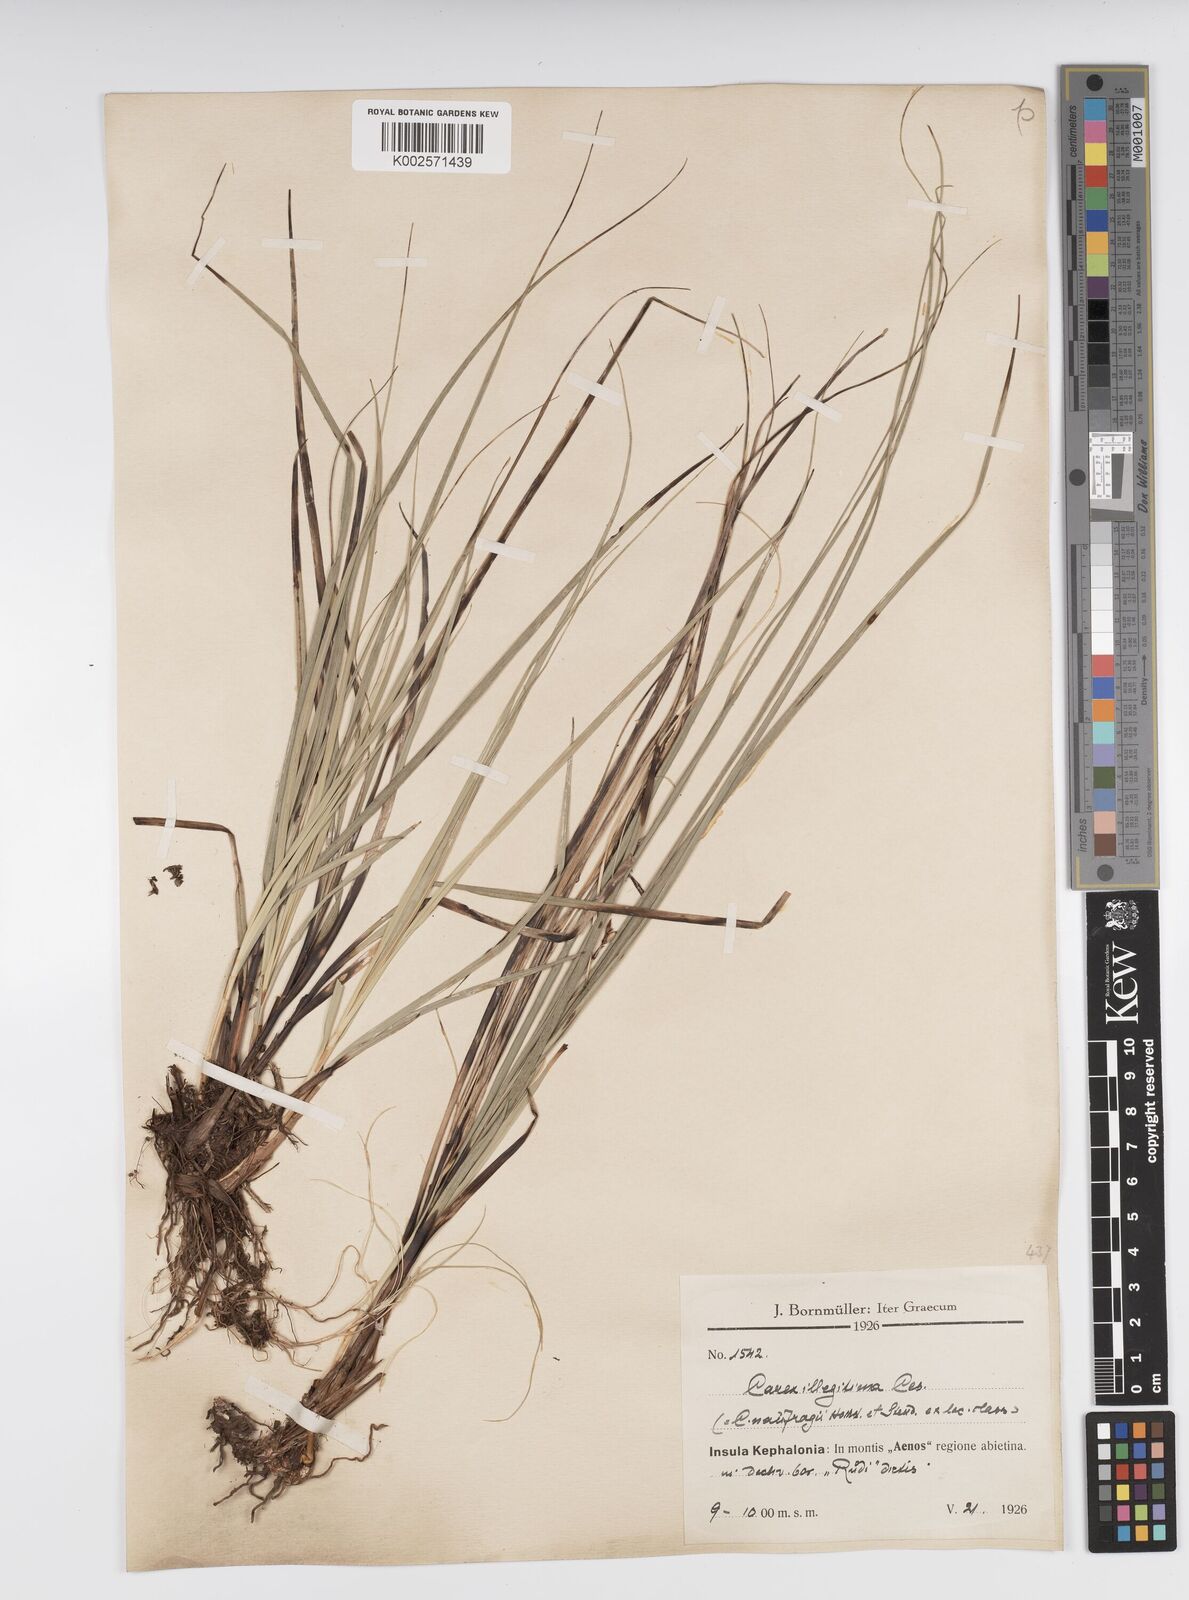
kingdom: Plantae
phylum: Tracheophyta
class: Liliopsida
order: Poales
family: Cyperaceae
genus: Carex
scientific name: Carex illegitima
